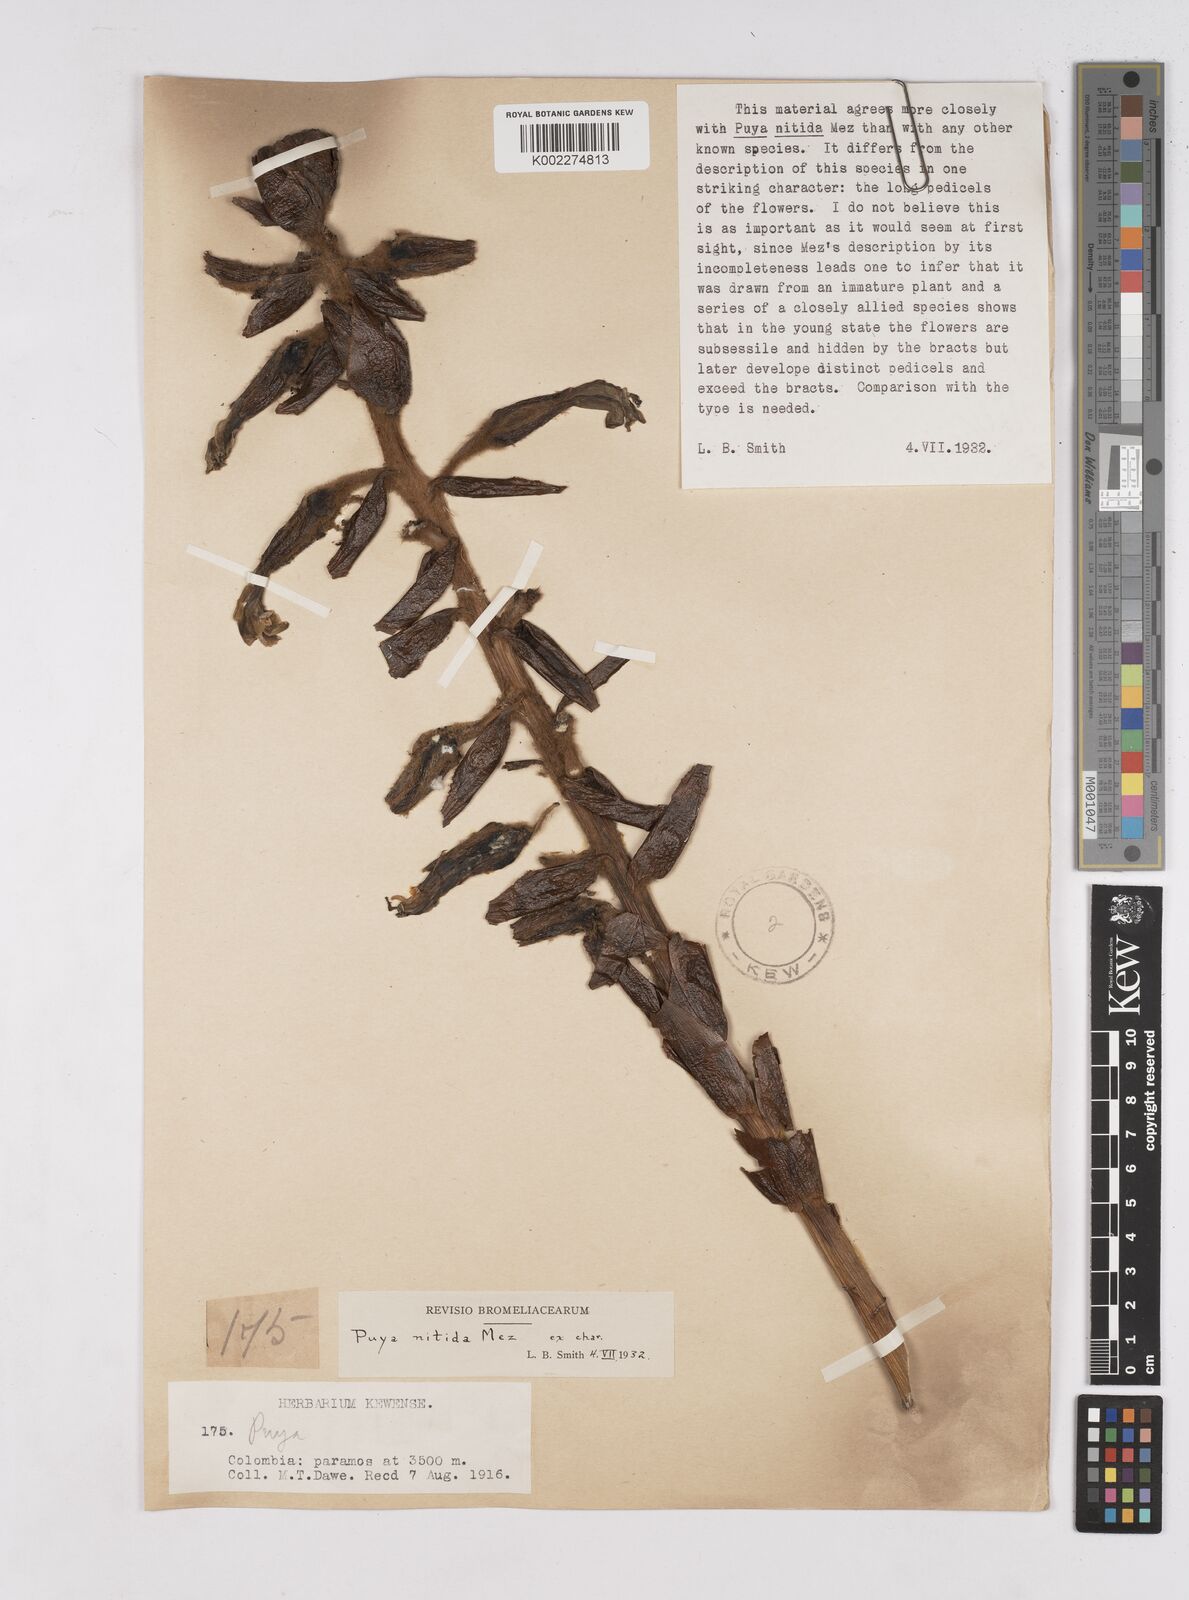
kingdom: Plantae
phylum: Tracheophyta
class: Liliopsida
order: Poales
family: Bromeliaceae
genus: Puya
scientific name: Puya nitida
